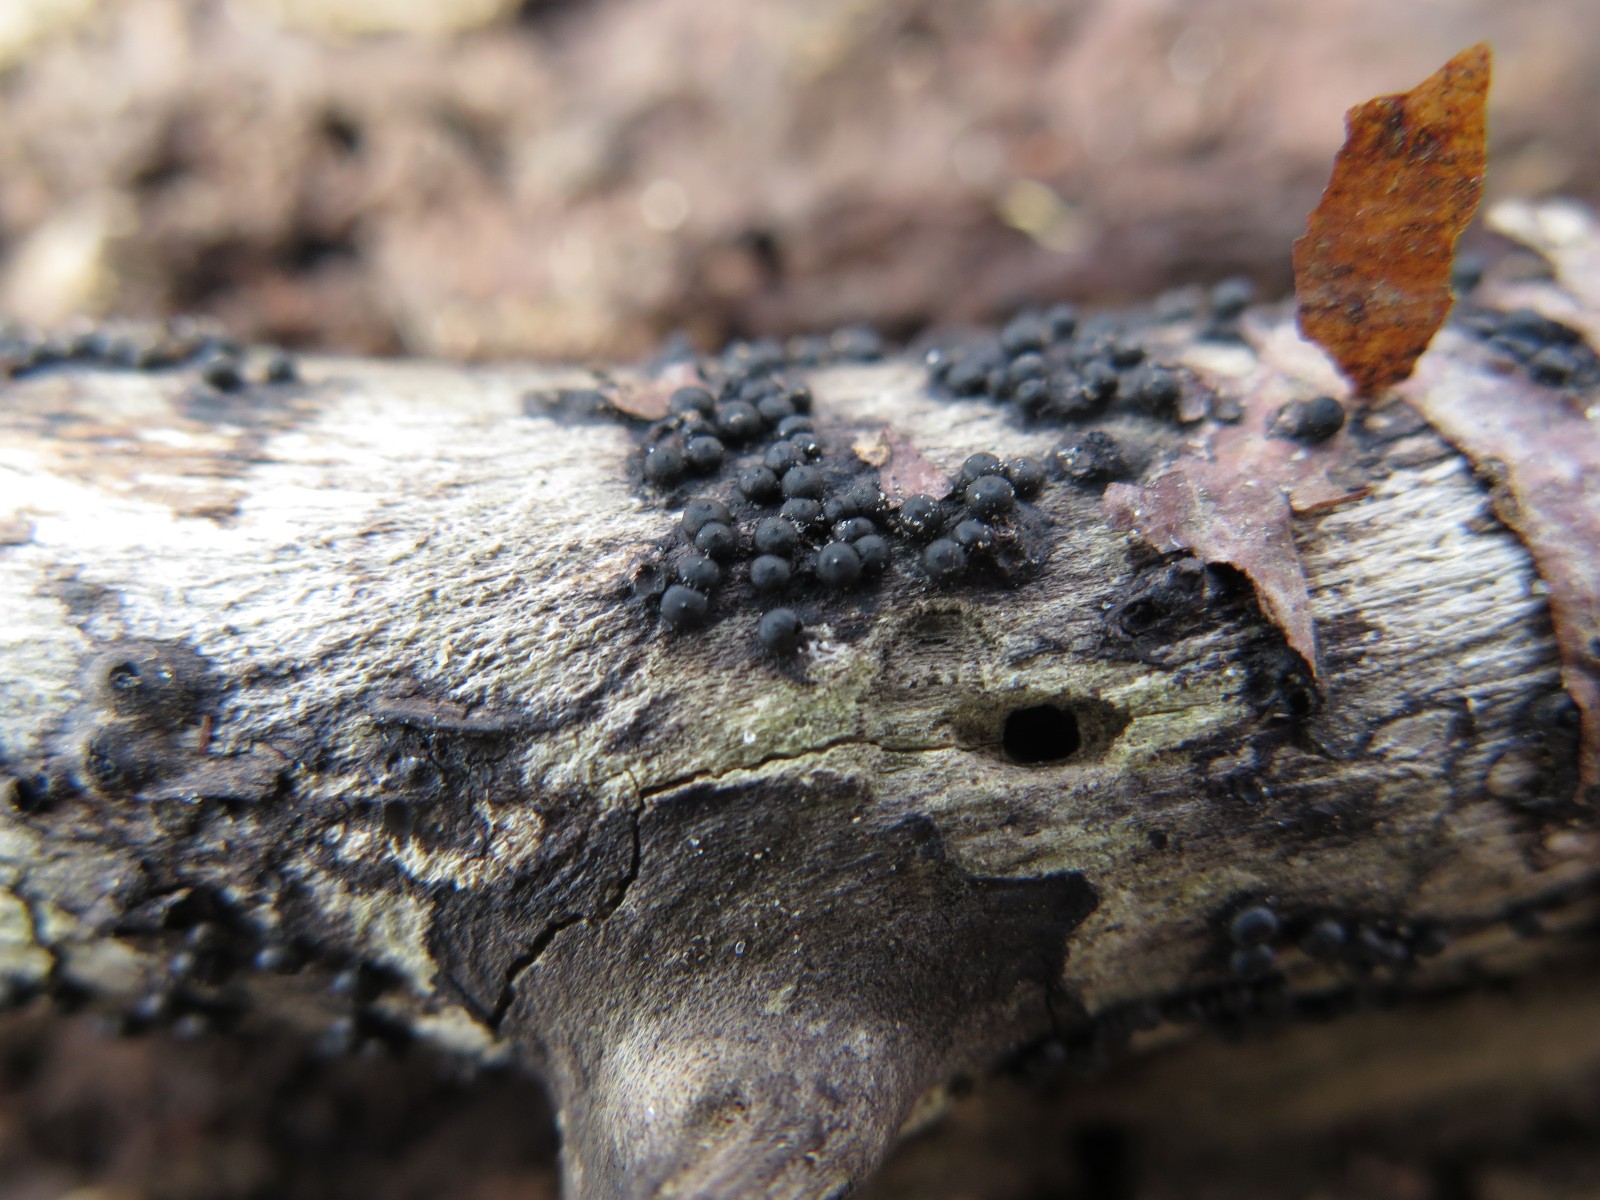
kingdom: Fungi
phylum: Ascomycota
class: Sordariomycetes
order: Xylariales
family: Xylariaceae
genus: Rosellinia
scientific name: Rosellinia marcucciana
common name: måtteløs kulkaviar
